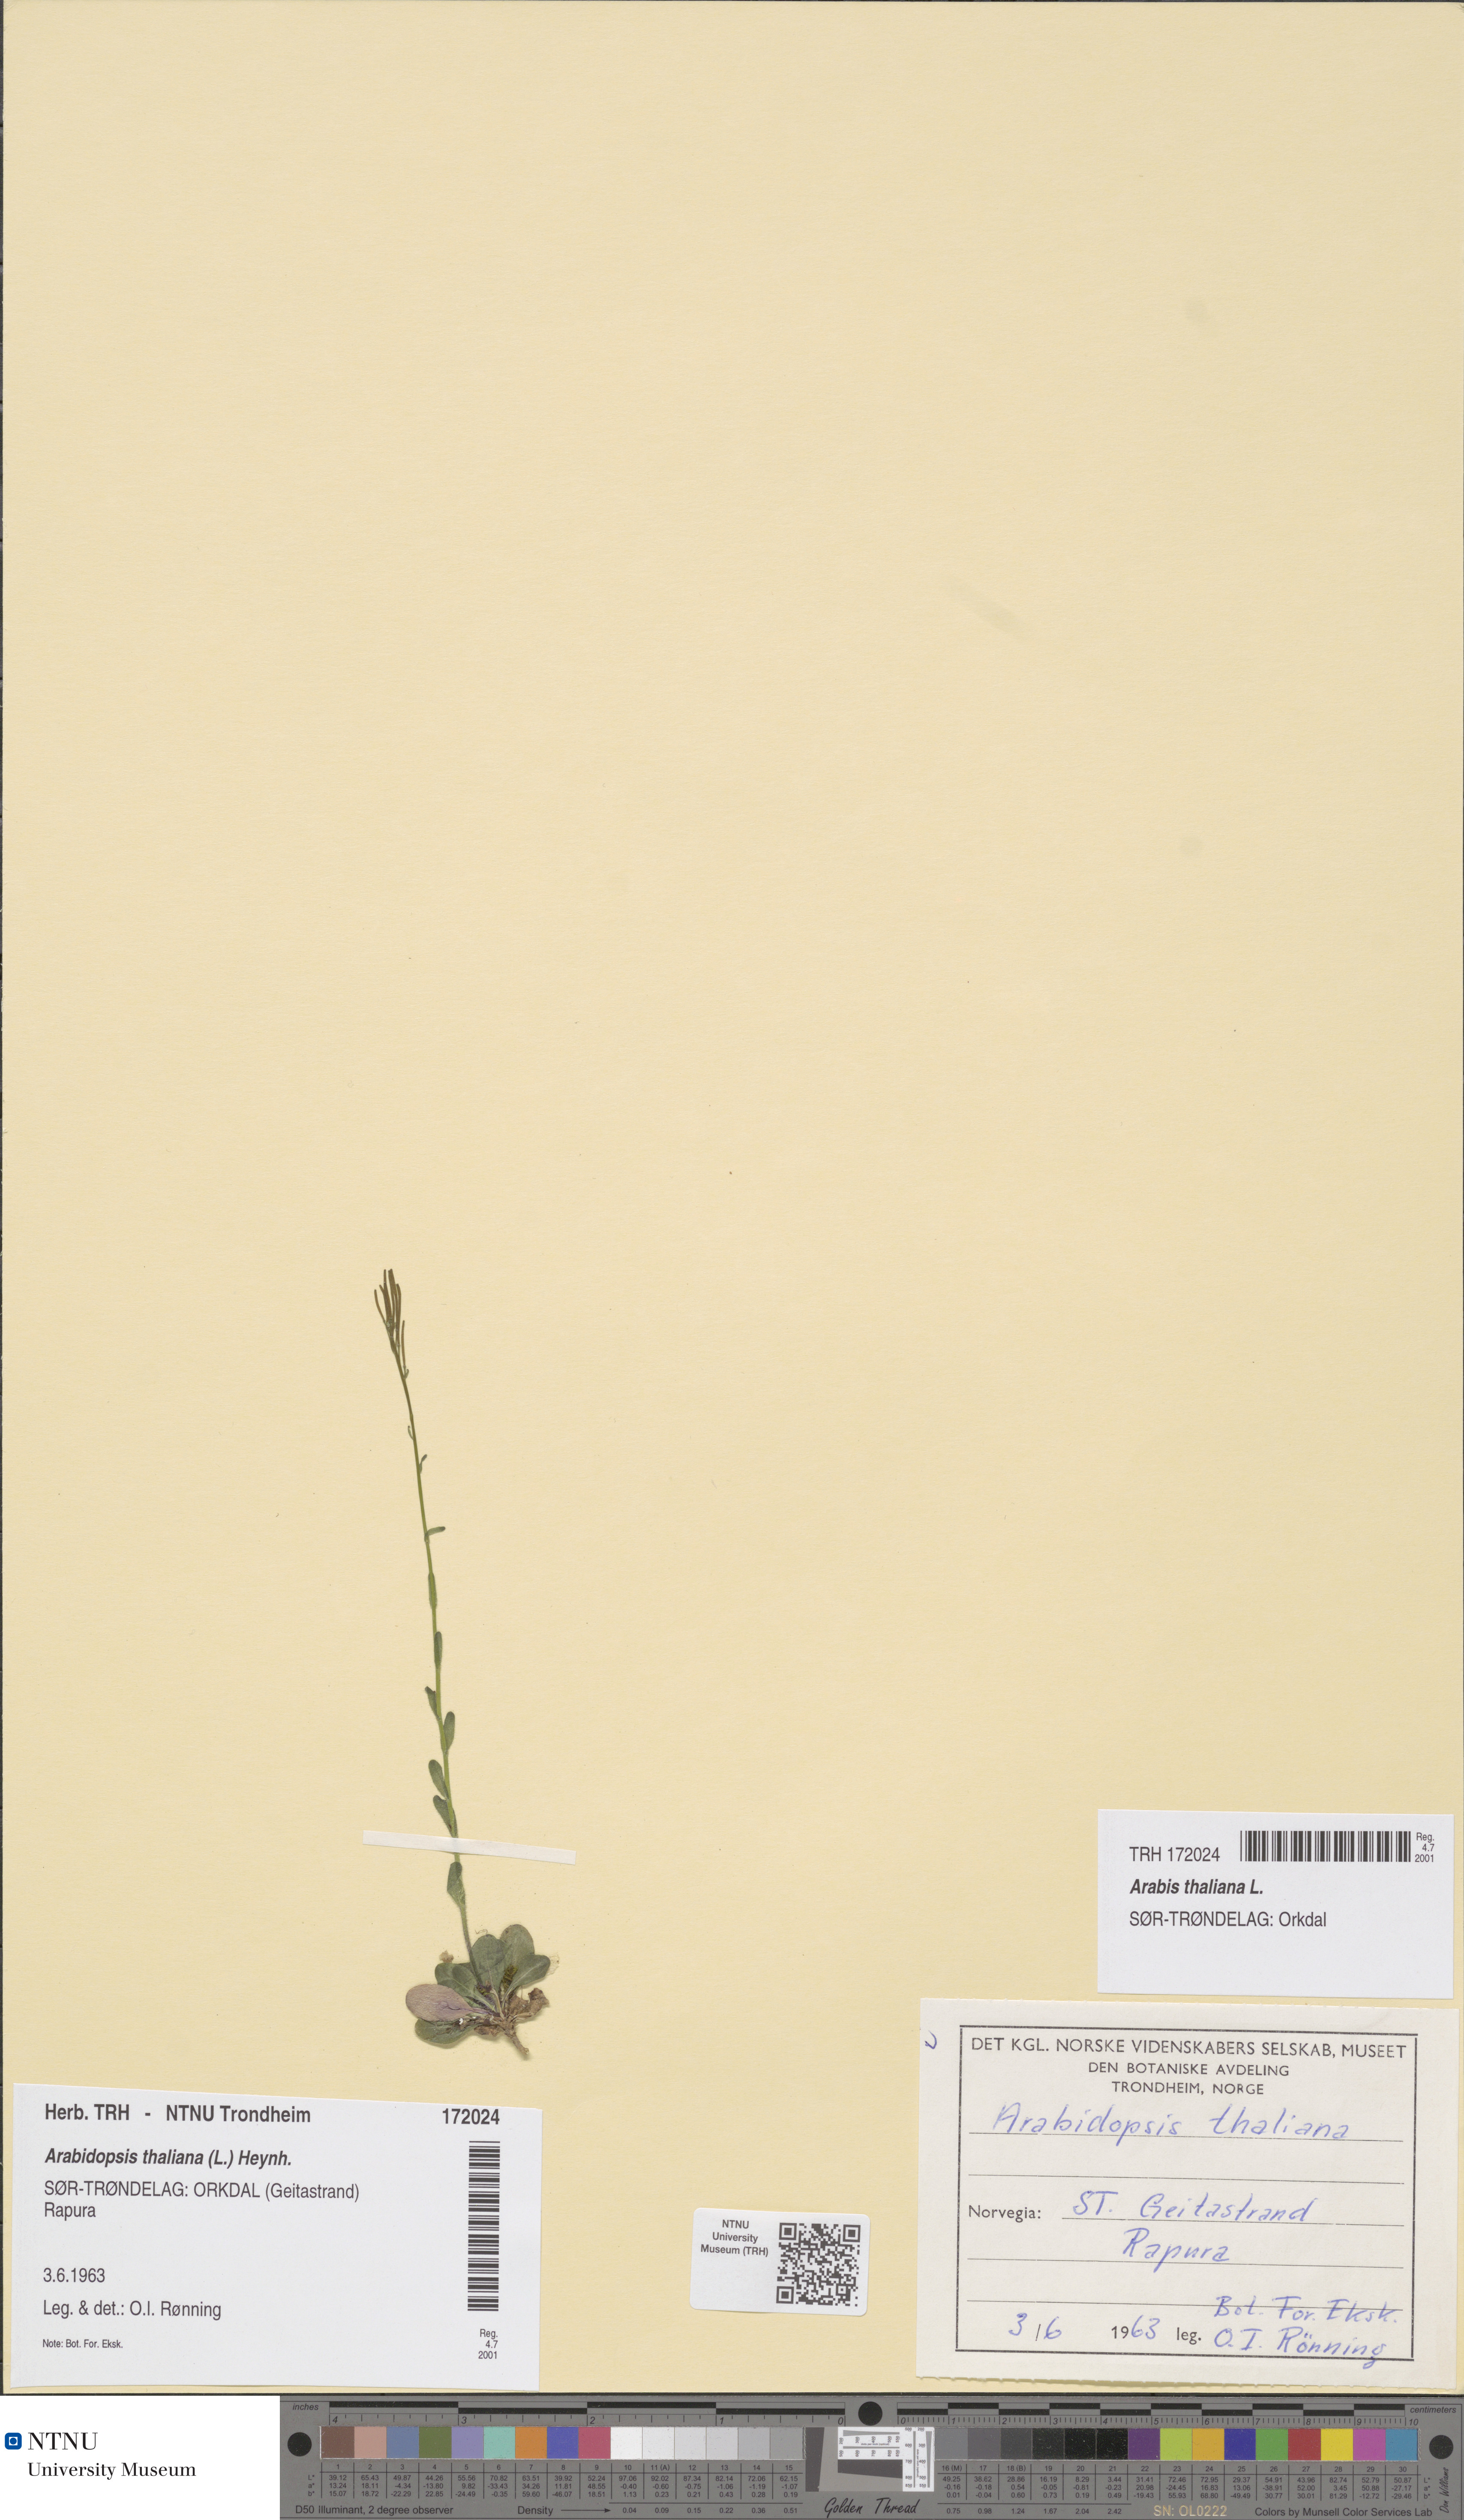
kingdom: Plantae
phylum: Tracheophyta
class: Magnoliopsida
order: Brassicales
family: Brassicaceae
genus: Arabidopsis
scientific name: Arabidopsis thaliana
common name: Thale cress
